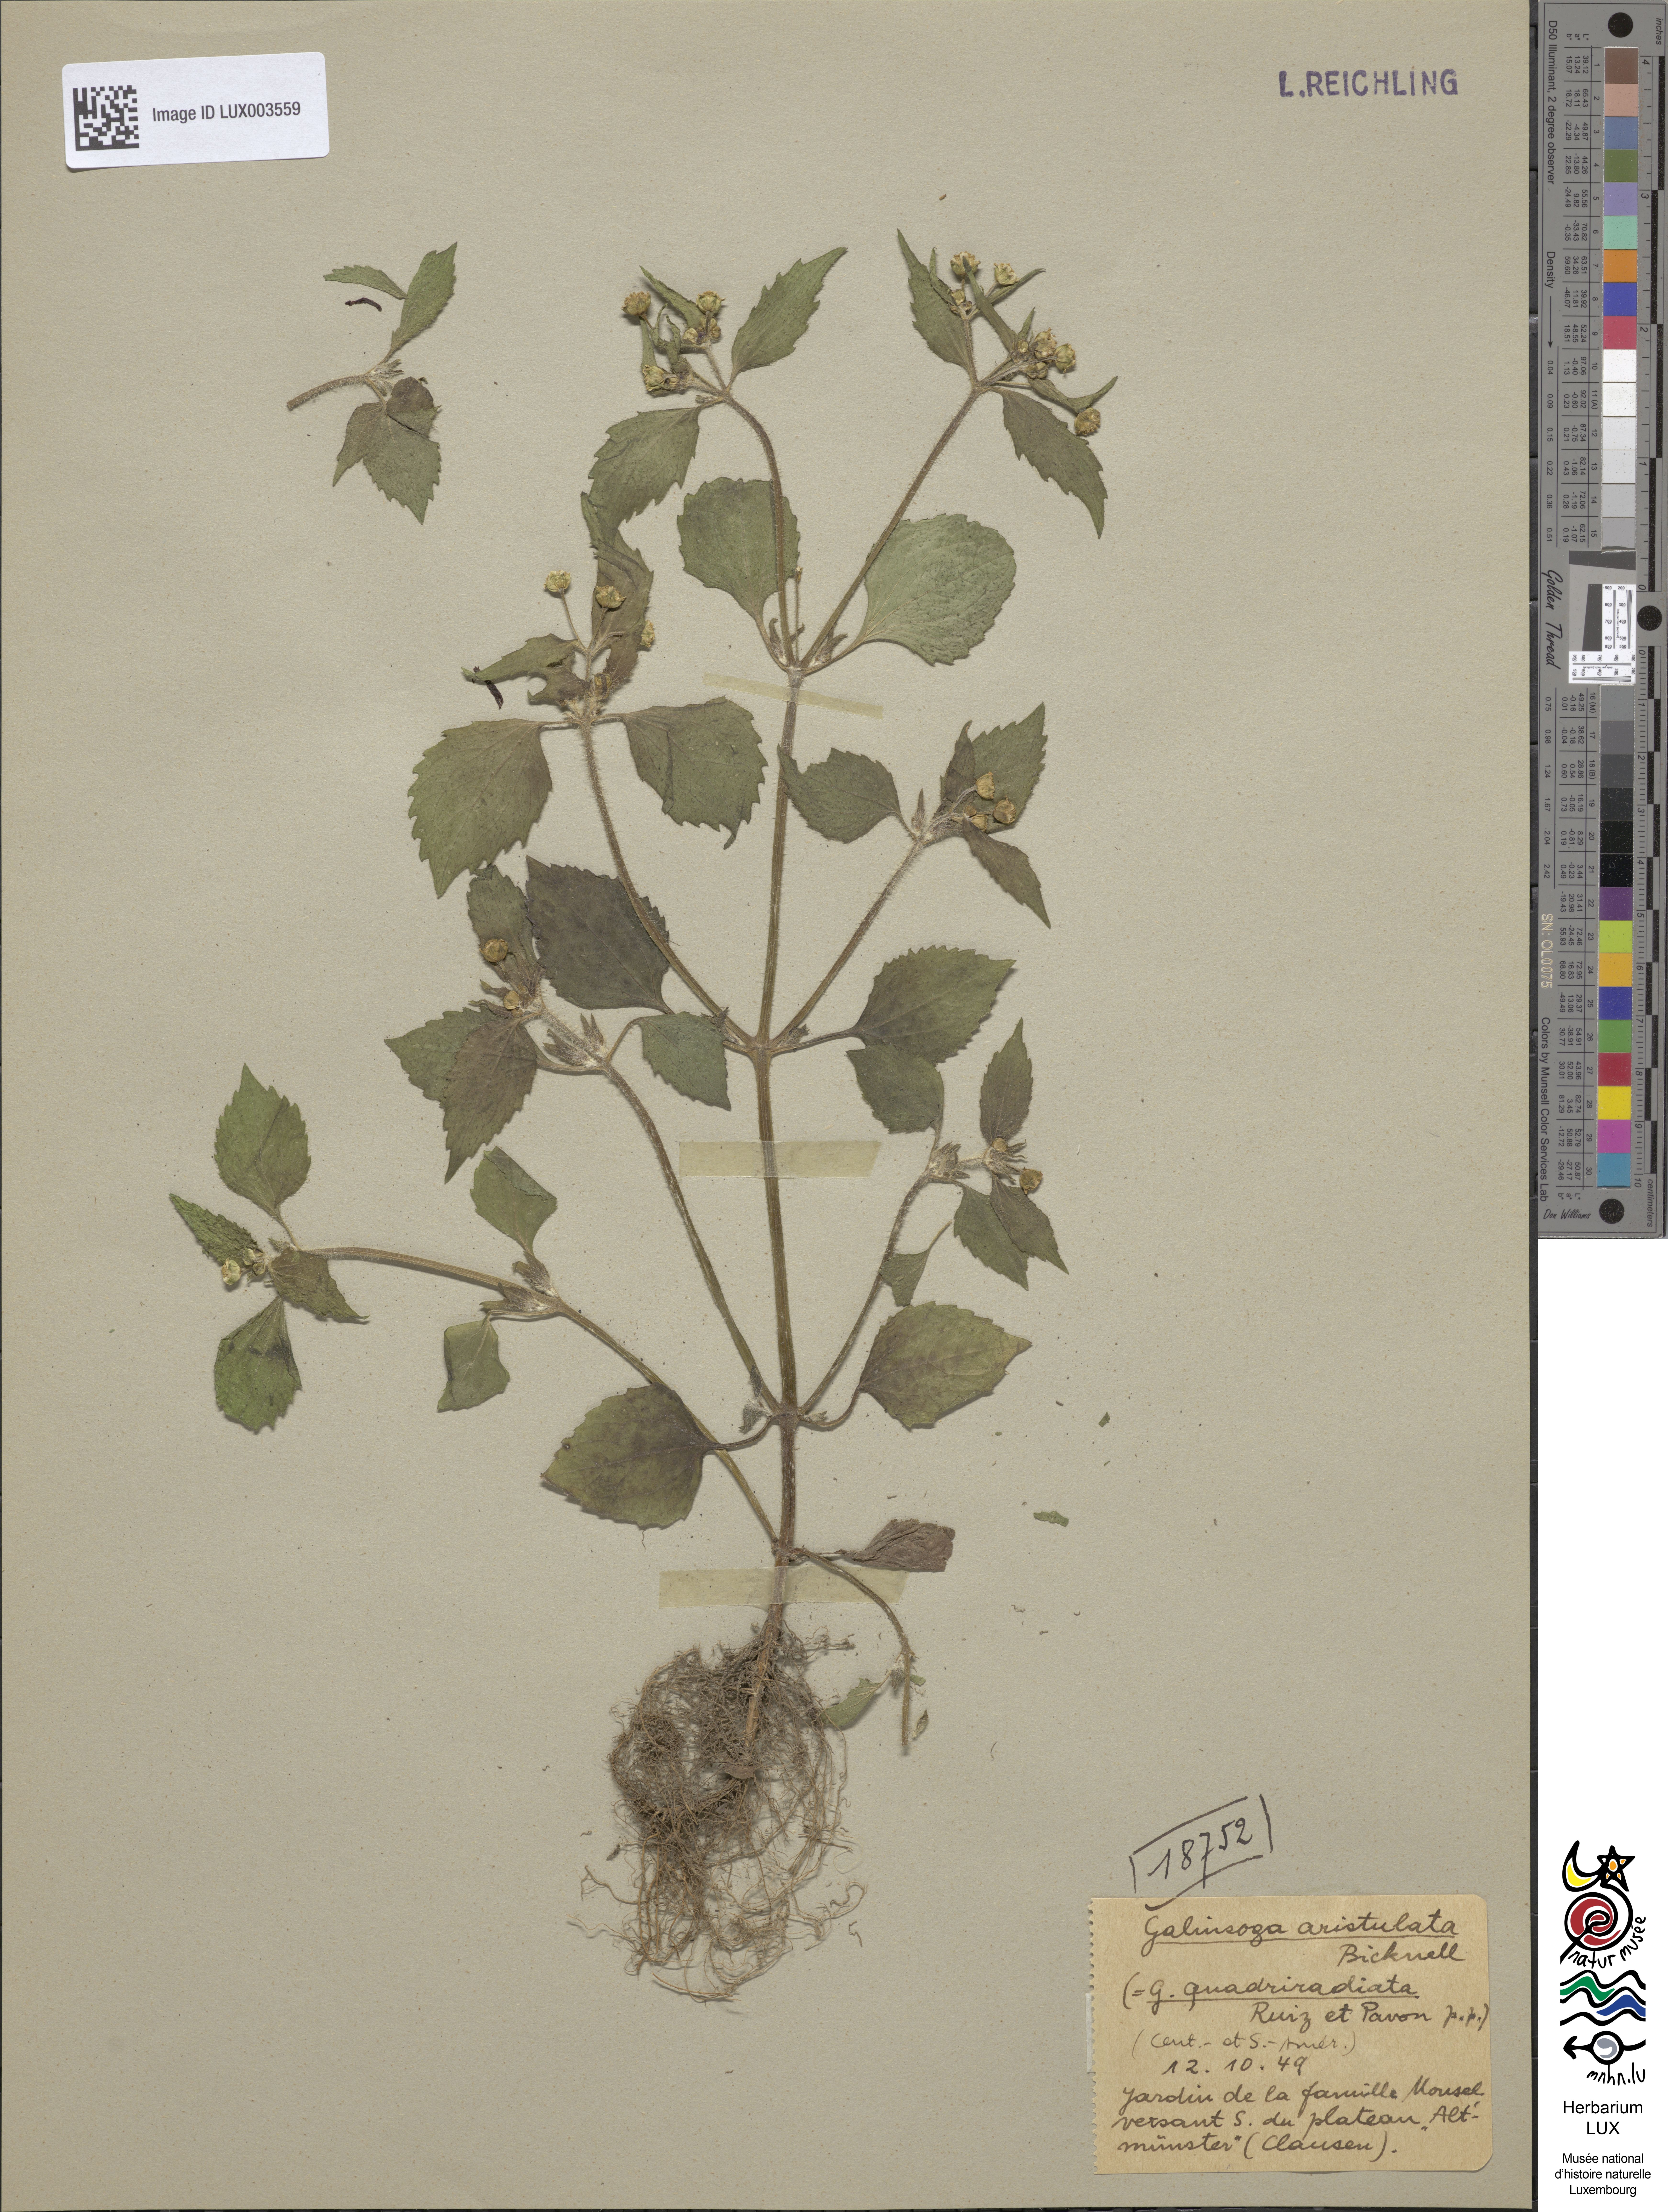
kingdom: Plantae
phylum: Tracheophyta
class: Magnoliopsida
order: Asterales
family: Asteraceae
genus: Galinsoga
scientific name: Galinsoga quadriradiata
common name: Shaggy soldier
